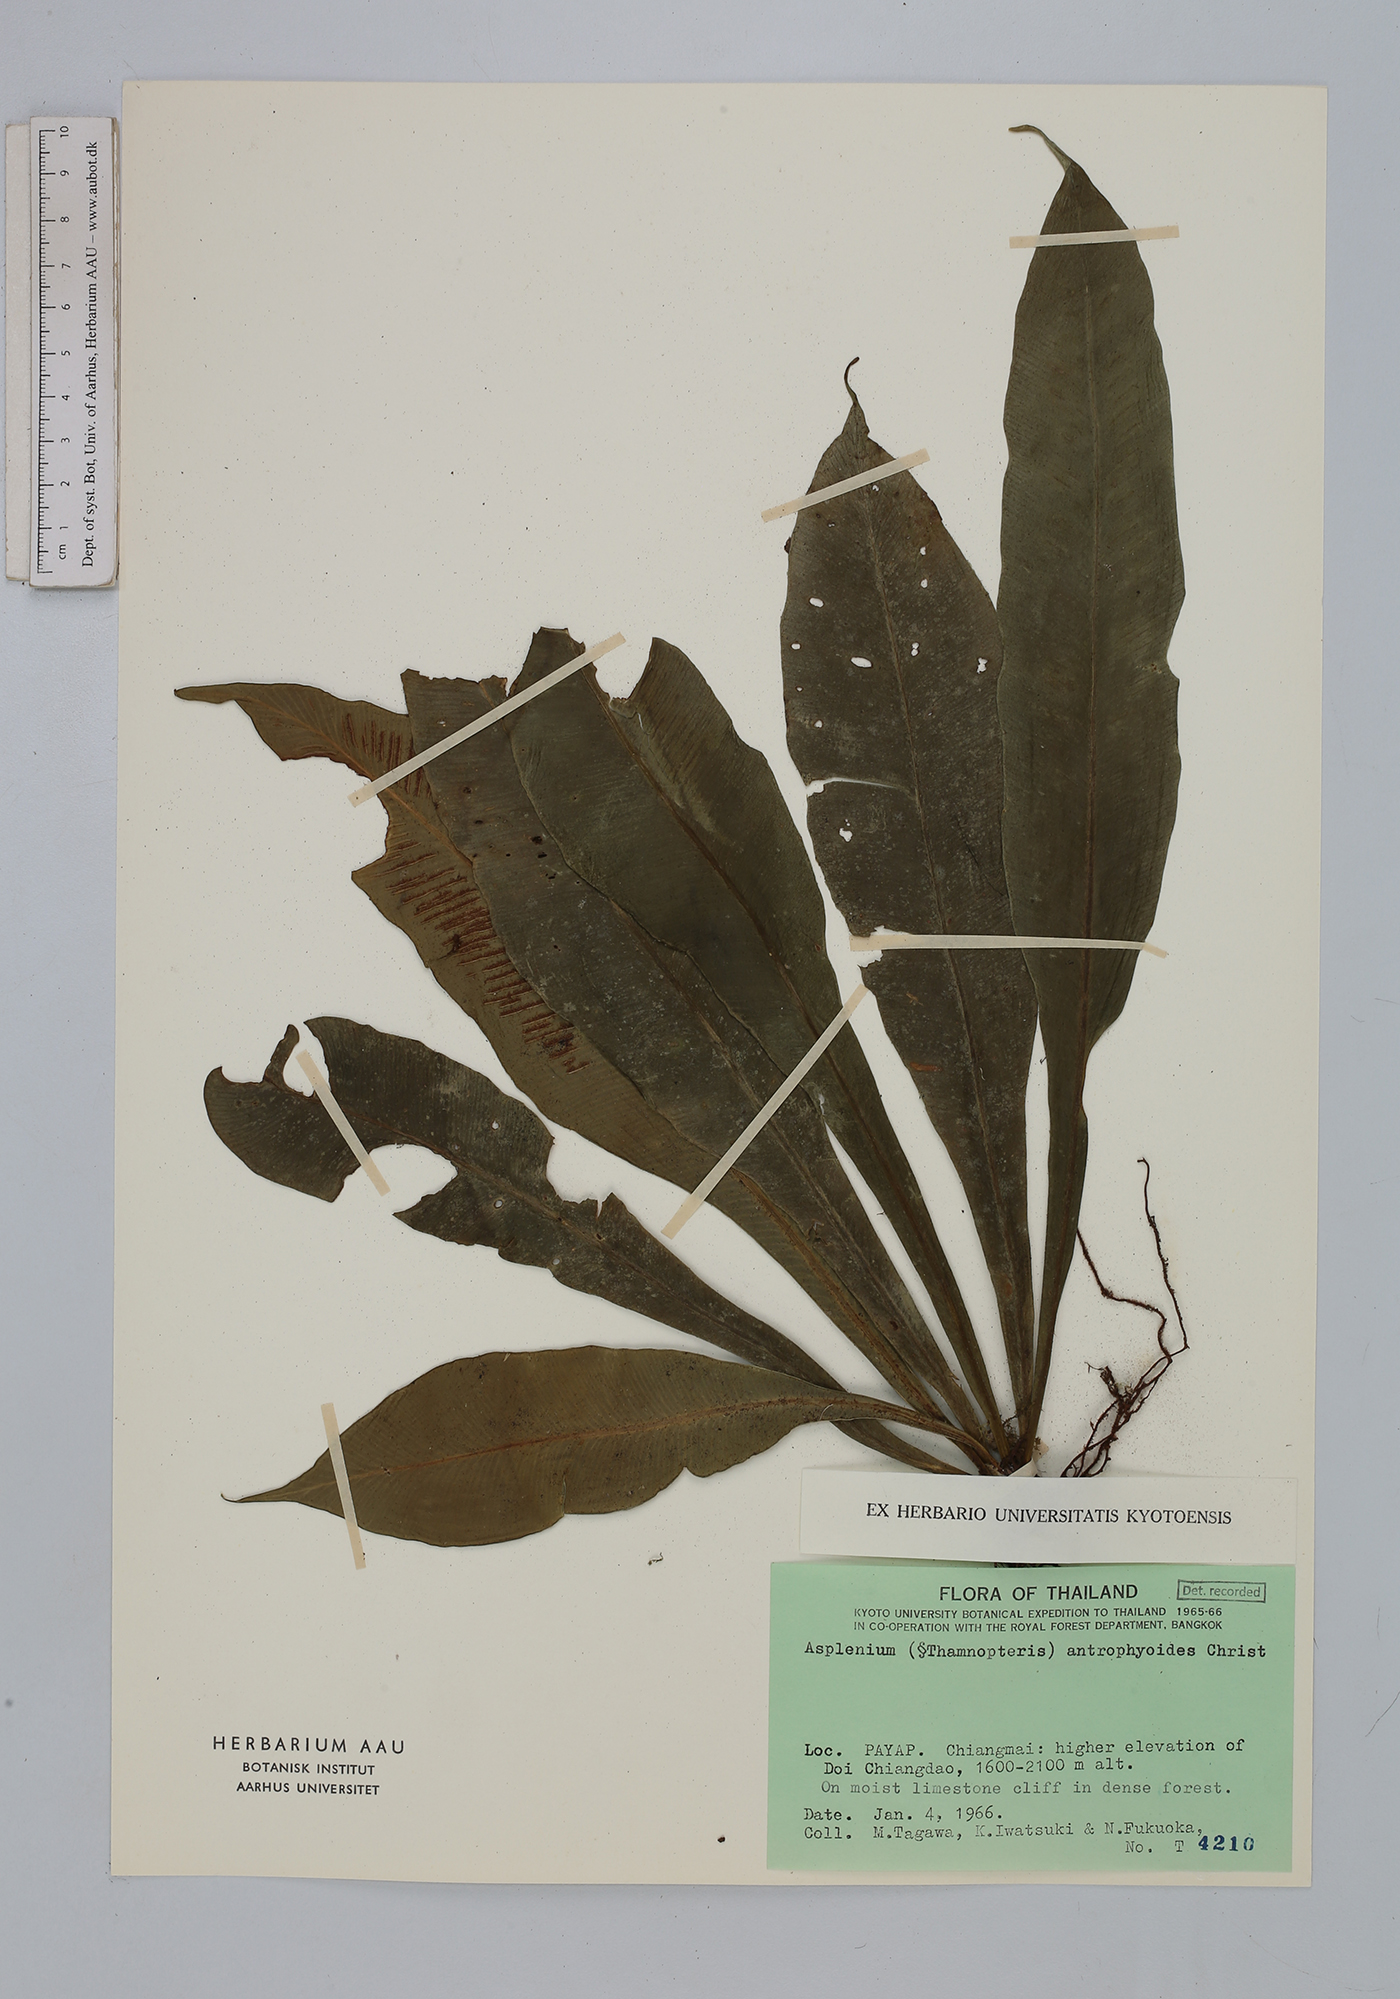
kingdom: Plantae
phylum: Tracheophyta
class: Polypodiopsida
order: Polypodiales
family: Aspleniaceae
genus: Asplenium
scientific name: Asplenium antrophyoides
